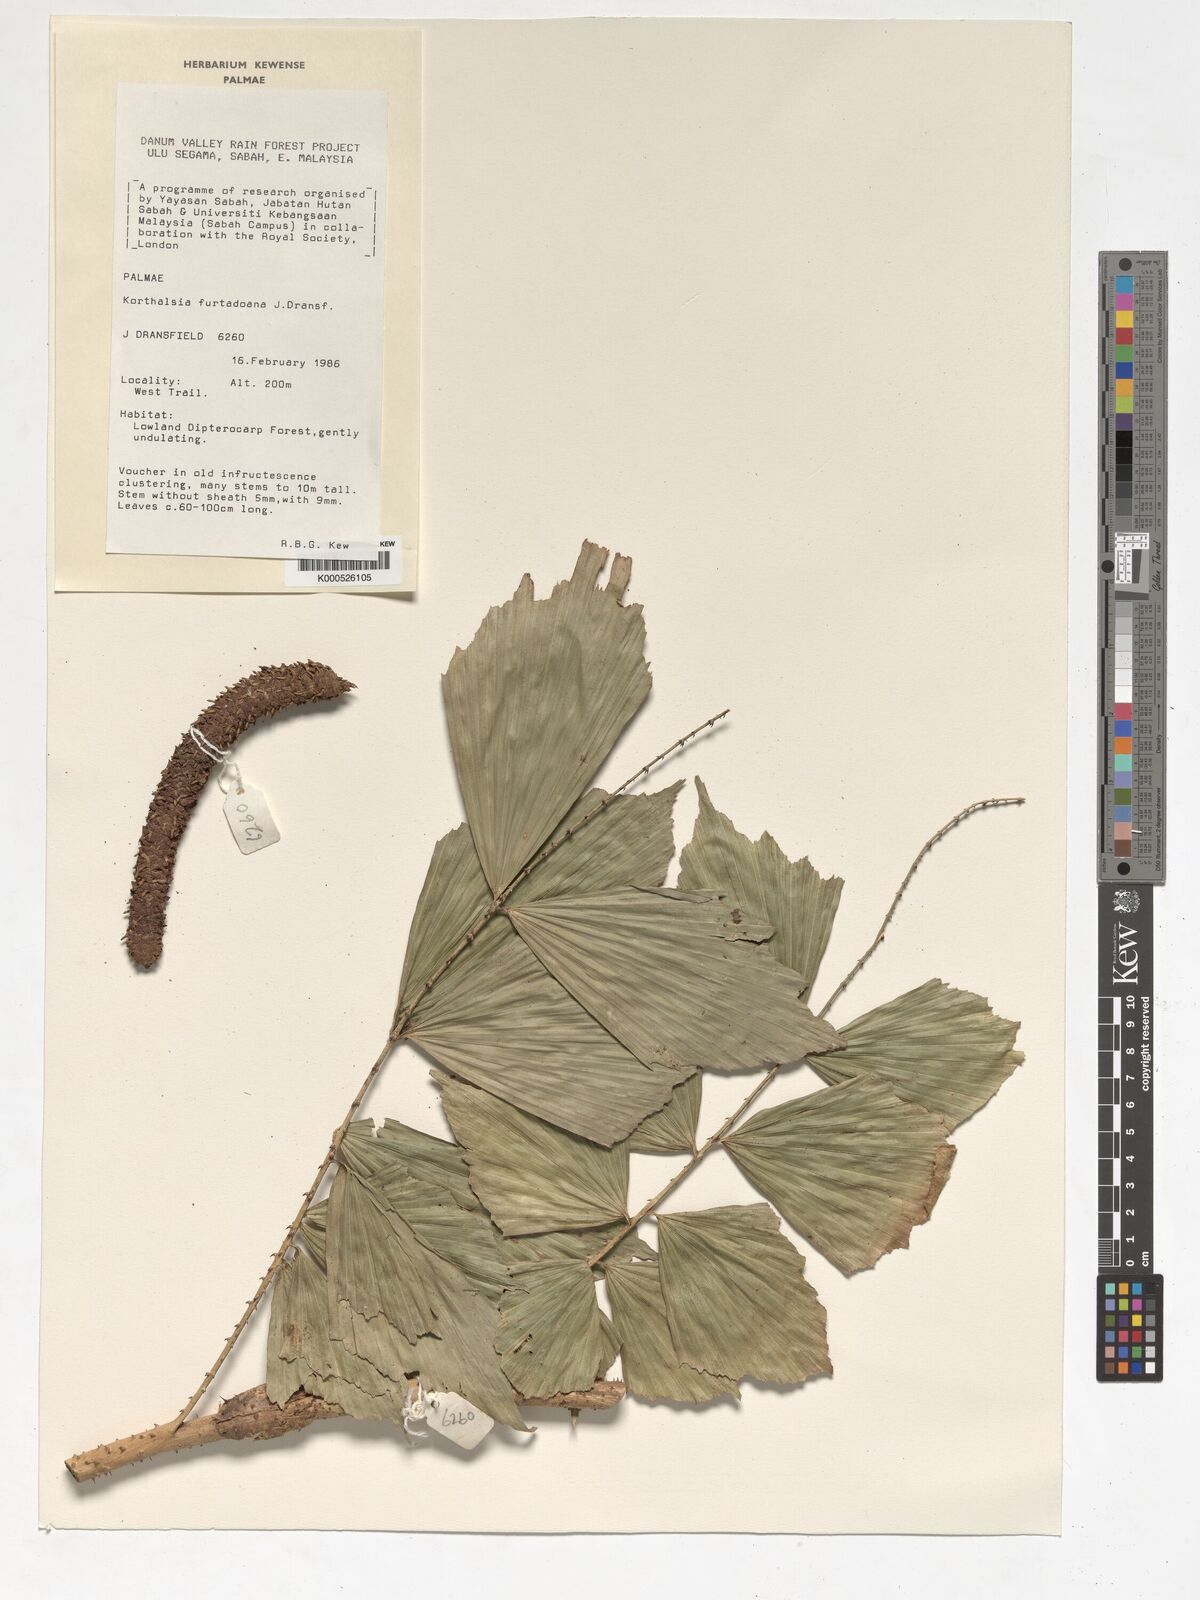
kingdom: Plantae
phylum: Tracheophyta
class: Liliopsida
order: Arecales
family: Arecaceae
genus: Korthalsia
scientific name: Korthalsia furtadoana
